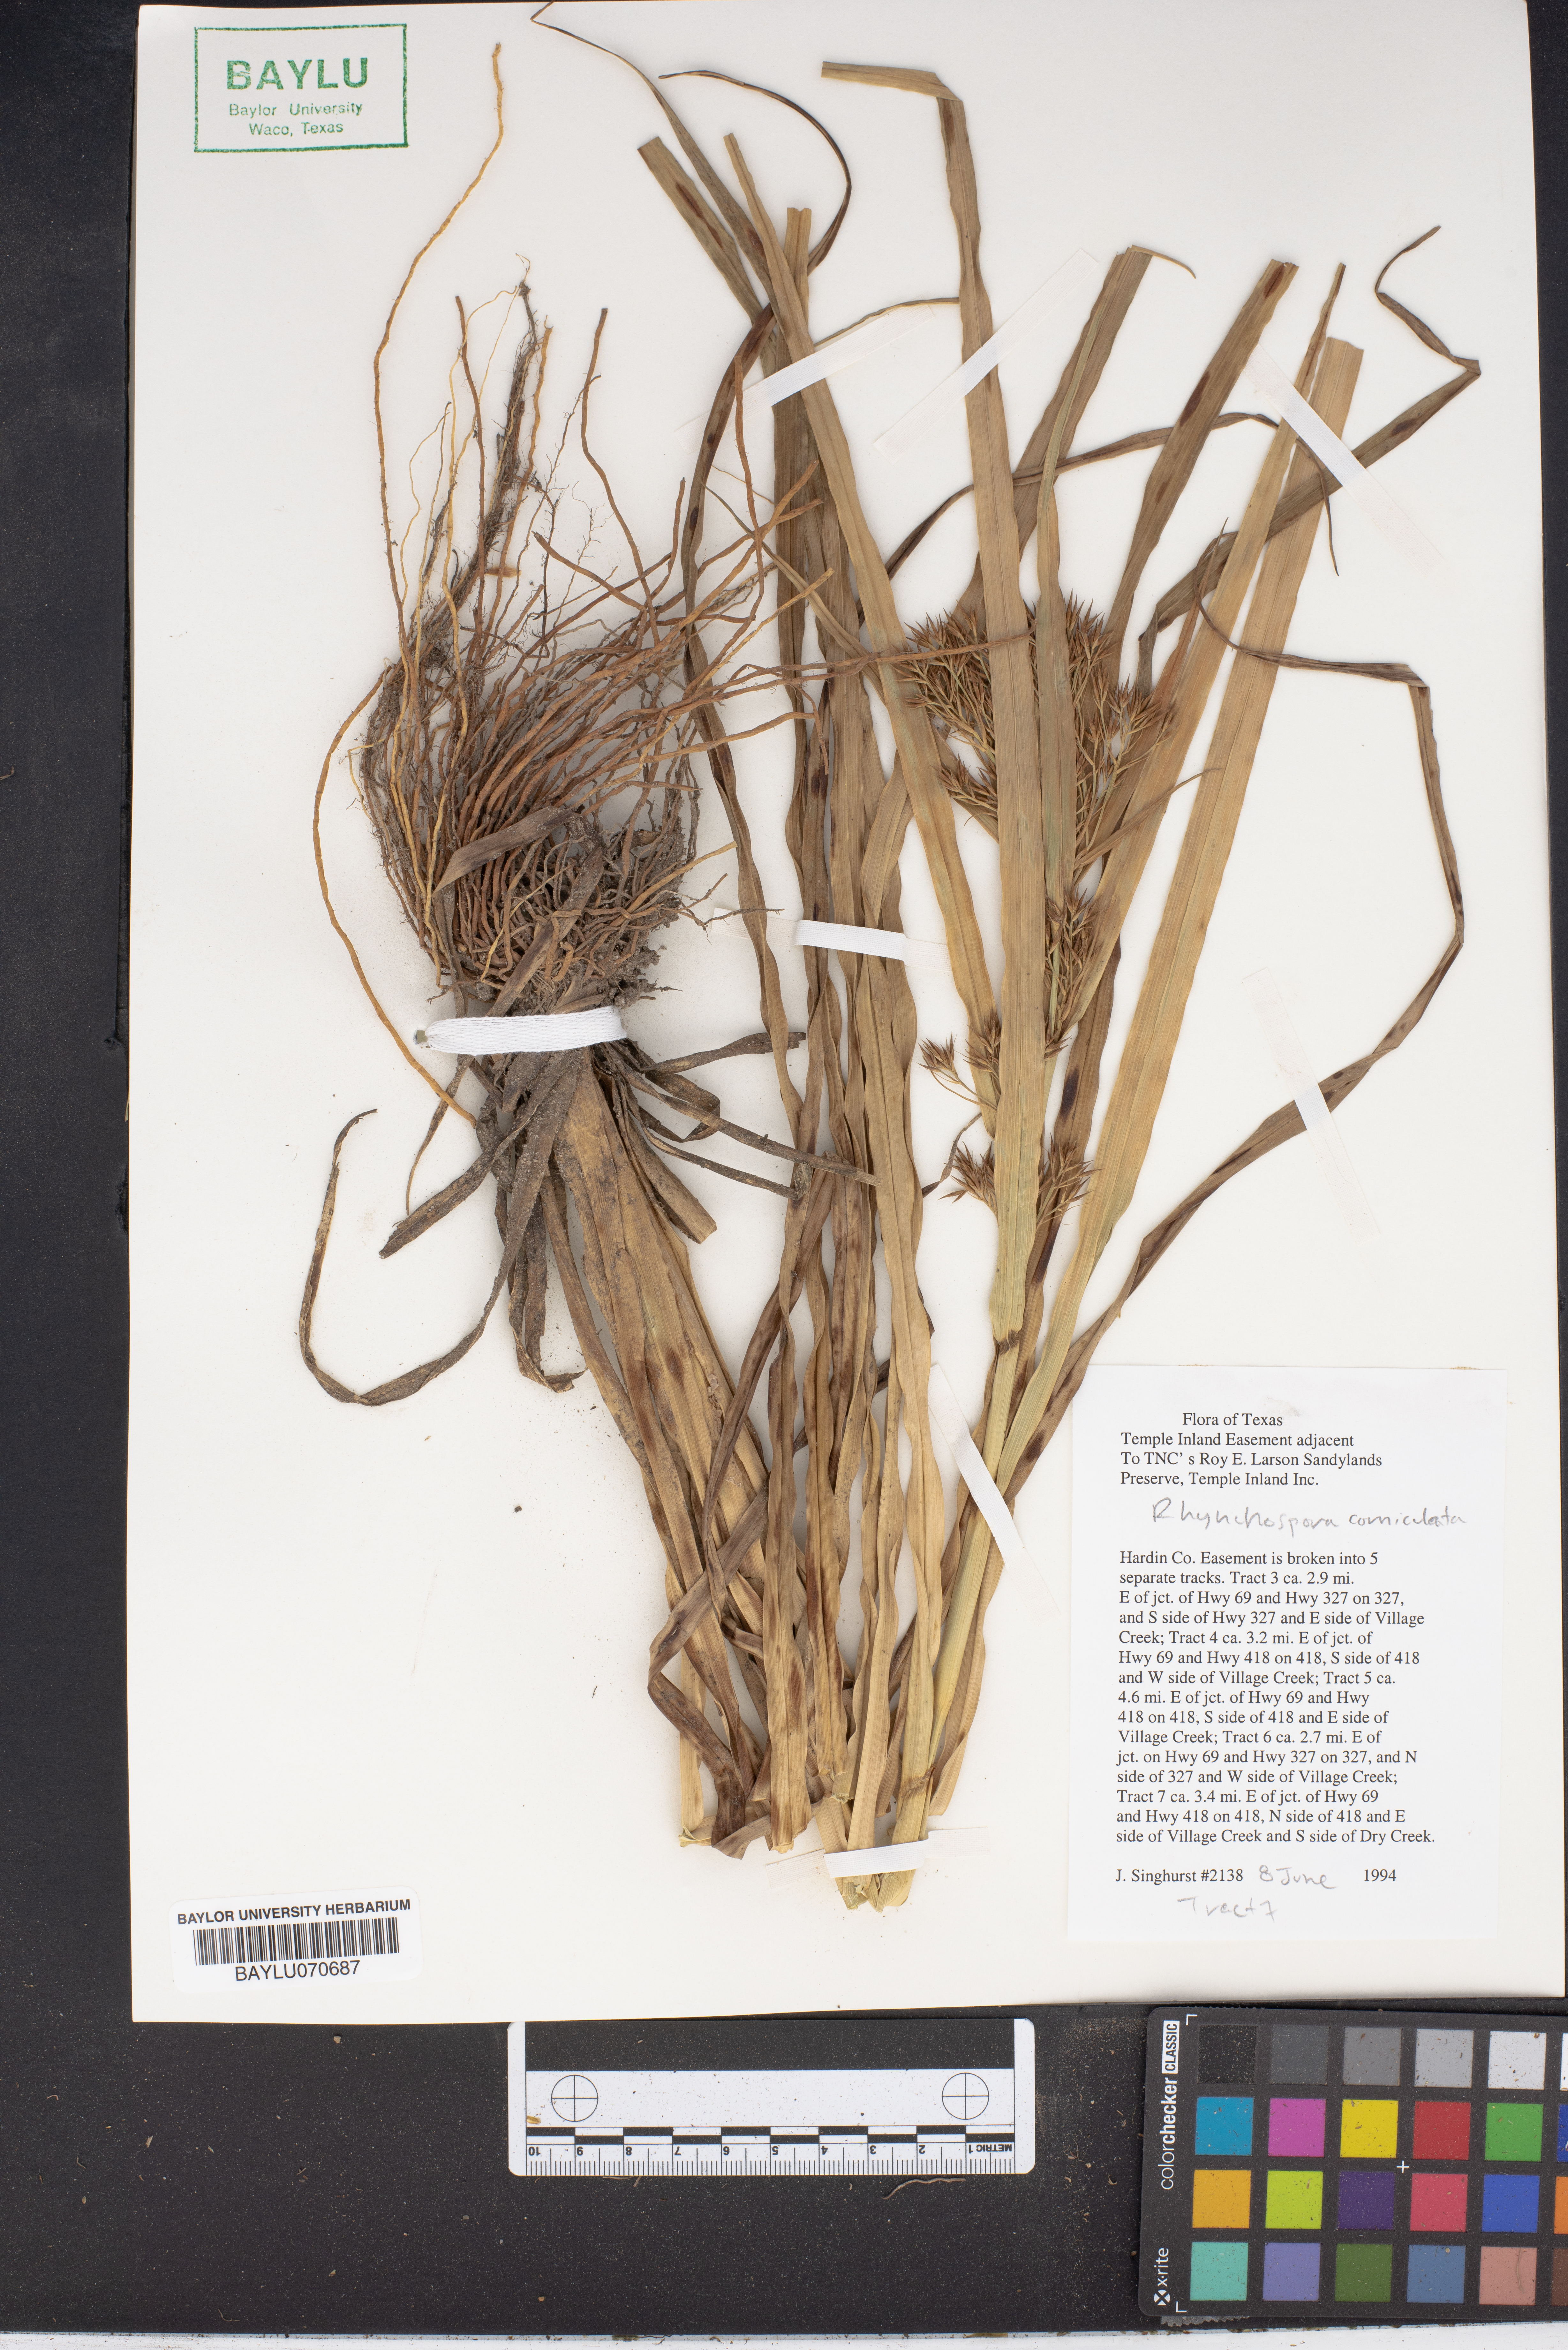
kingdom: Plantae
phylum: Tracheophyta
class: Liliopsida
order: Poales
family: Cyperaceae
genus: Rhynchospora
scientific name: Rhynchospora corniculata
